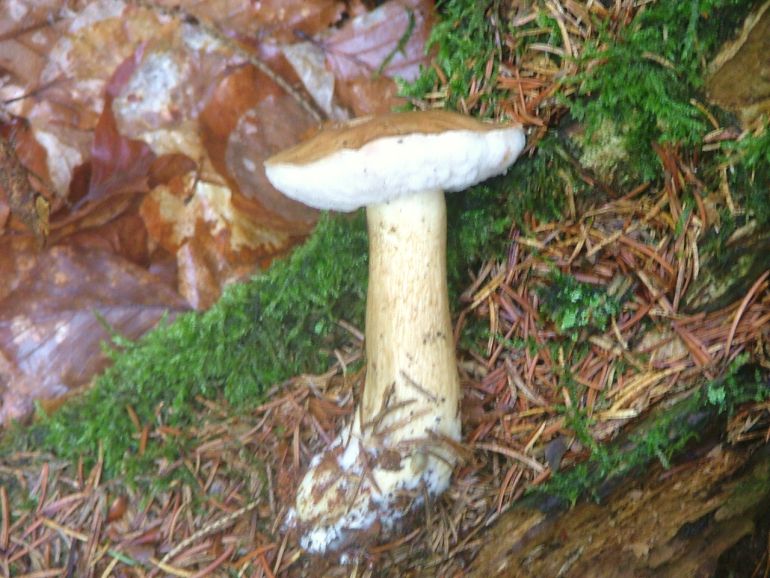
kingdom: Fungi
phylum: Basidiomycota
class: Agaricomycetes
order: Boletales
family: Boletaceae
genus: Tylopilus
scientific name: Tylopilus felleus
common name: galderørhat
